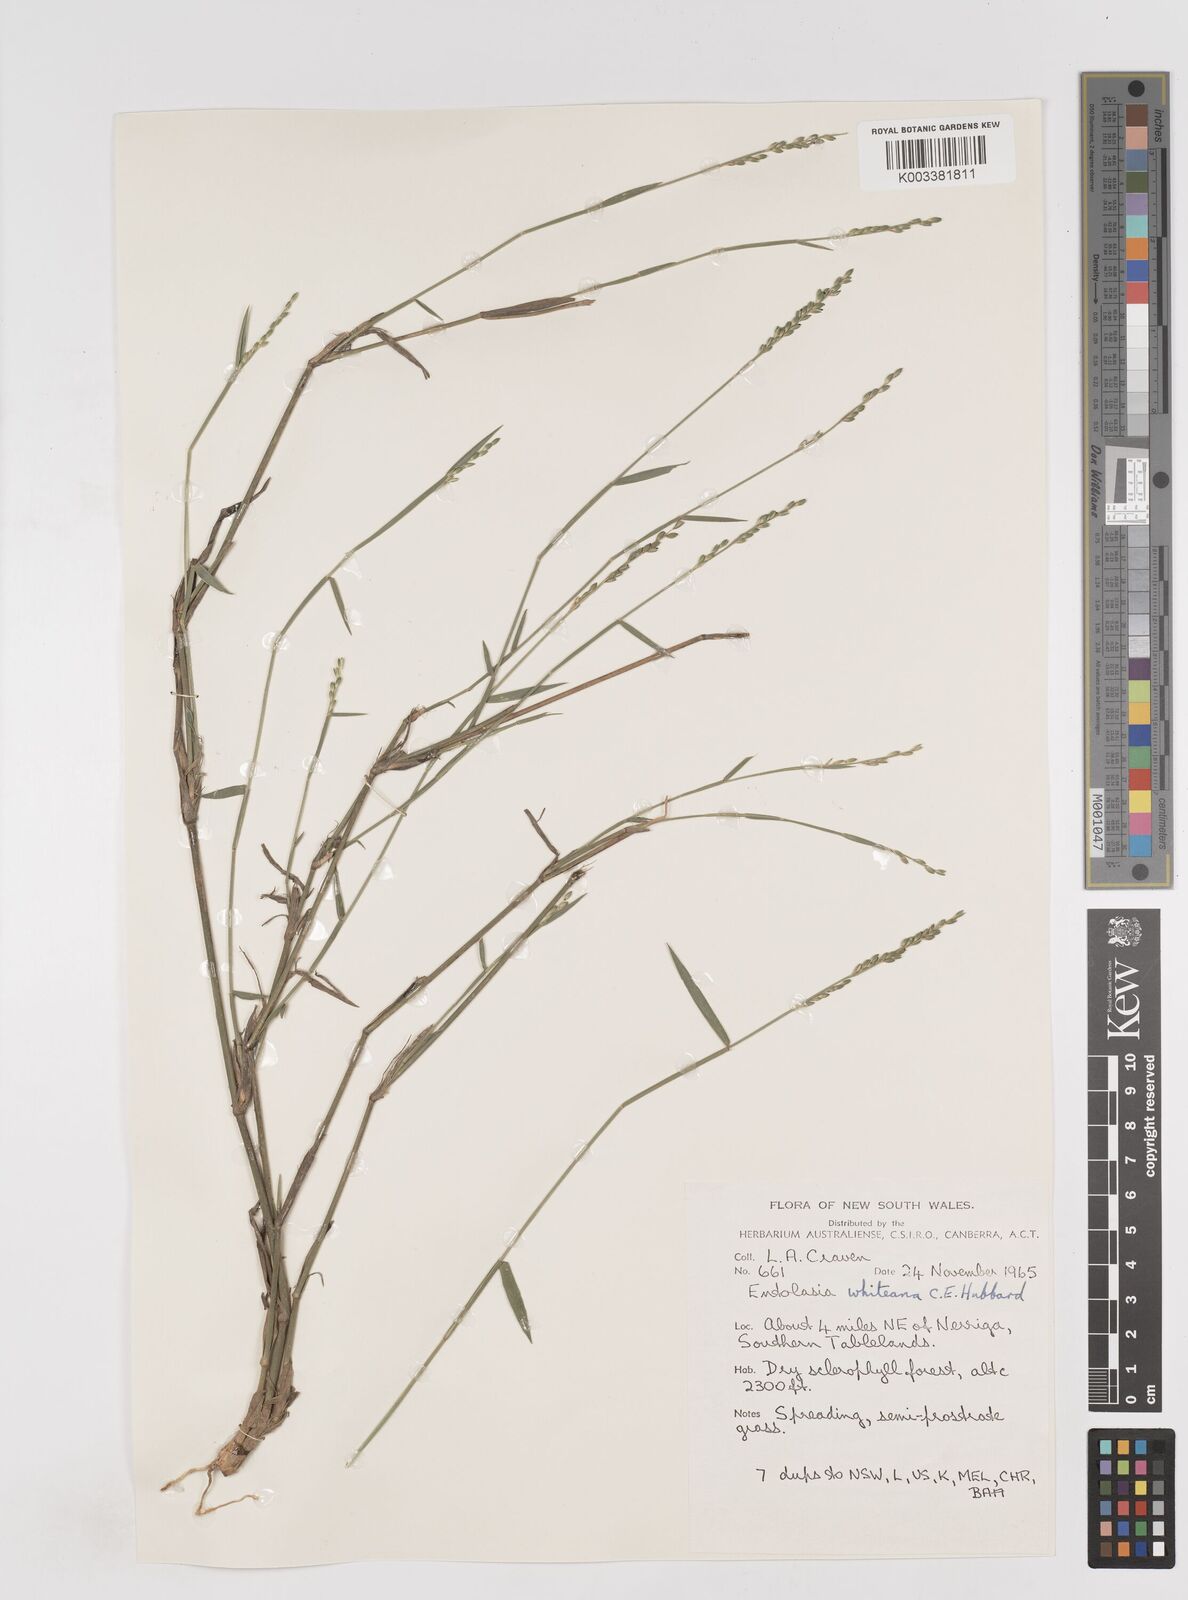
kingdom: Plantae
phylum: Tracheophyta
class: Liliopsida
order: Poales
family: Poaceae
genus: Entolasia
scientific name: Entolasia whiteana
